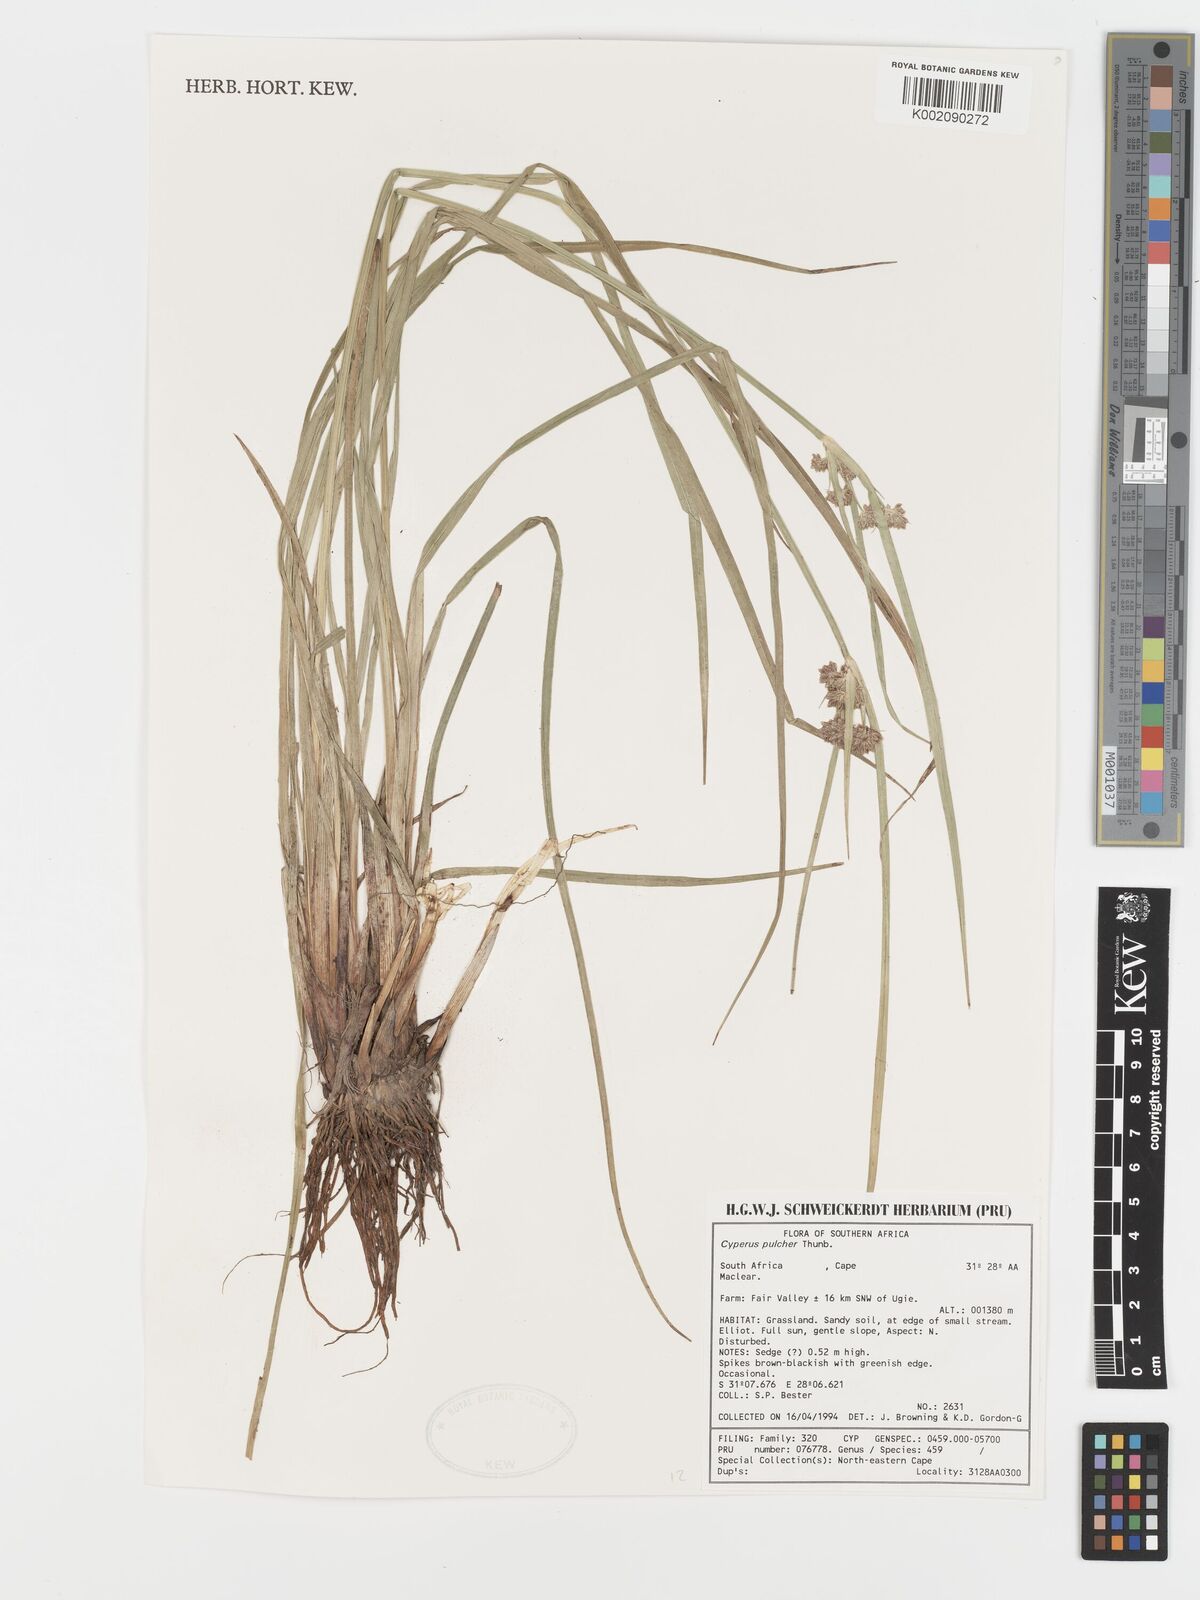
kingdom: Plantae
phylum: Tracheophyta
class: Liliopsida
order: Poales
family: Cyperaceae
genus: Cyperus
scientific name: Cyperus pulcher
